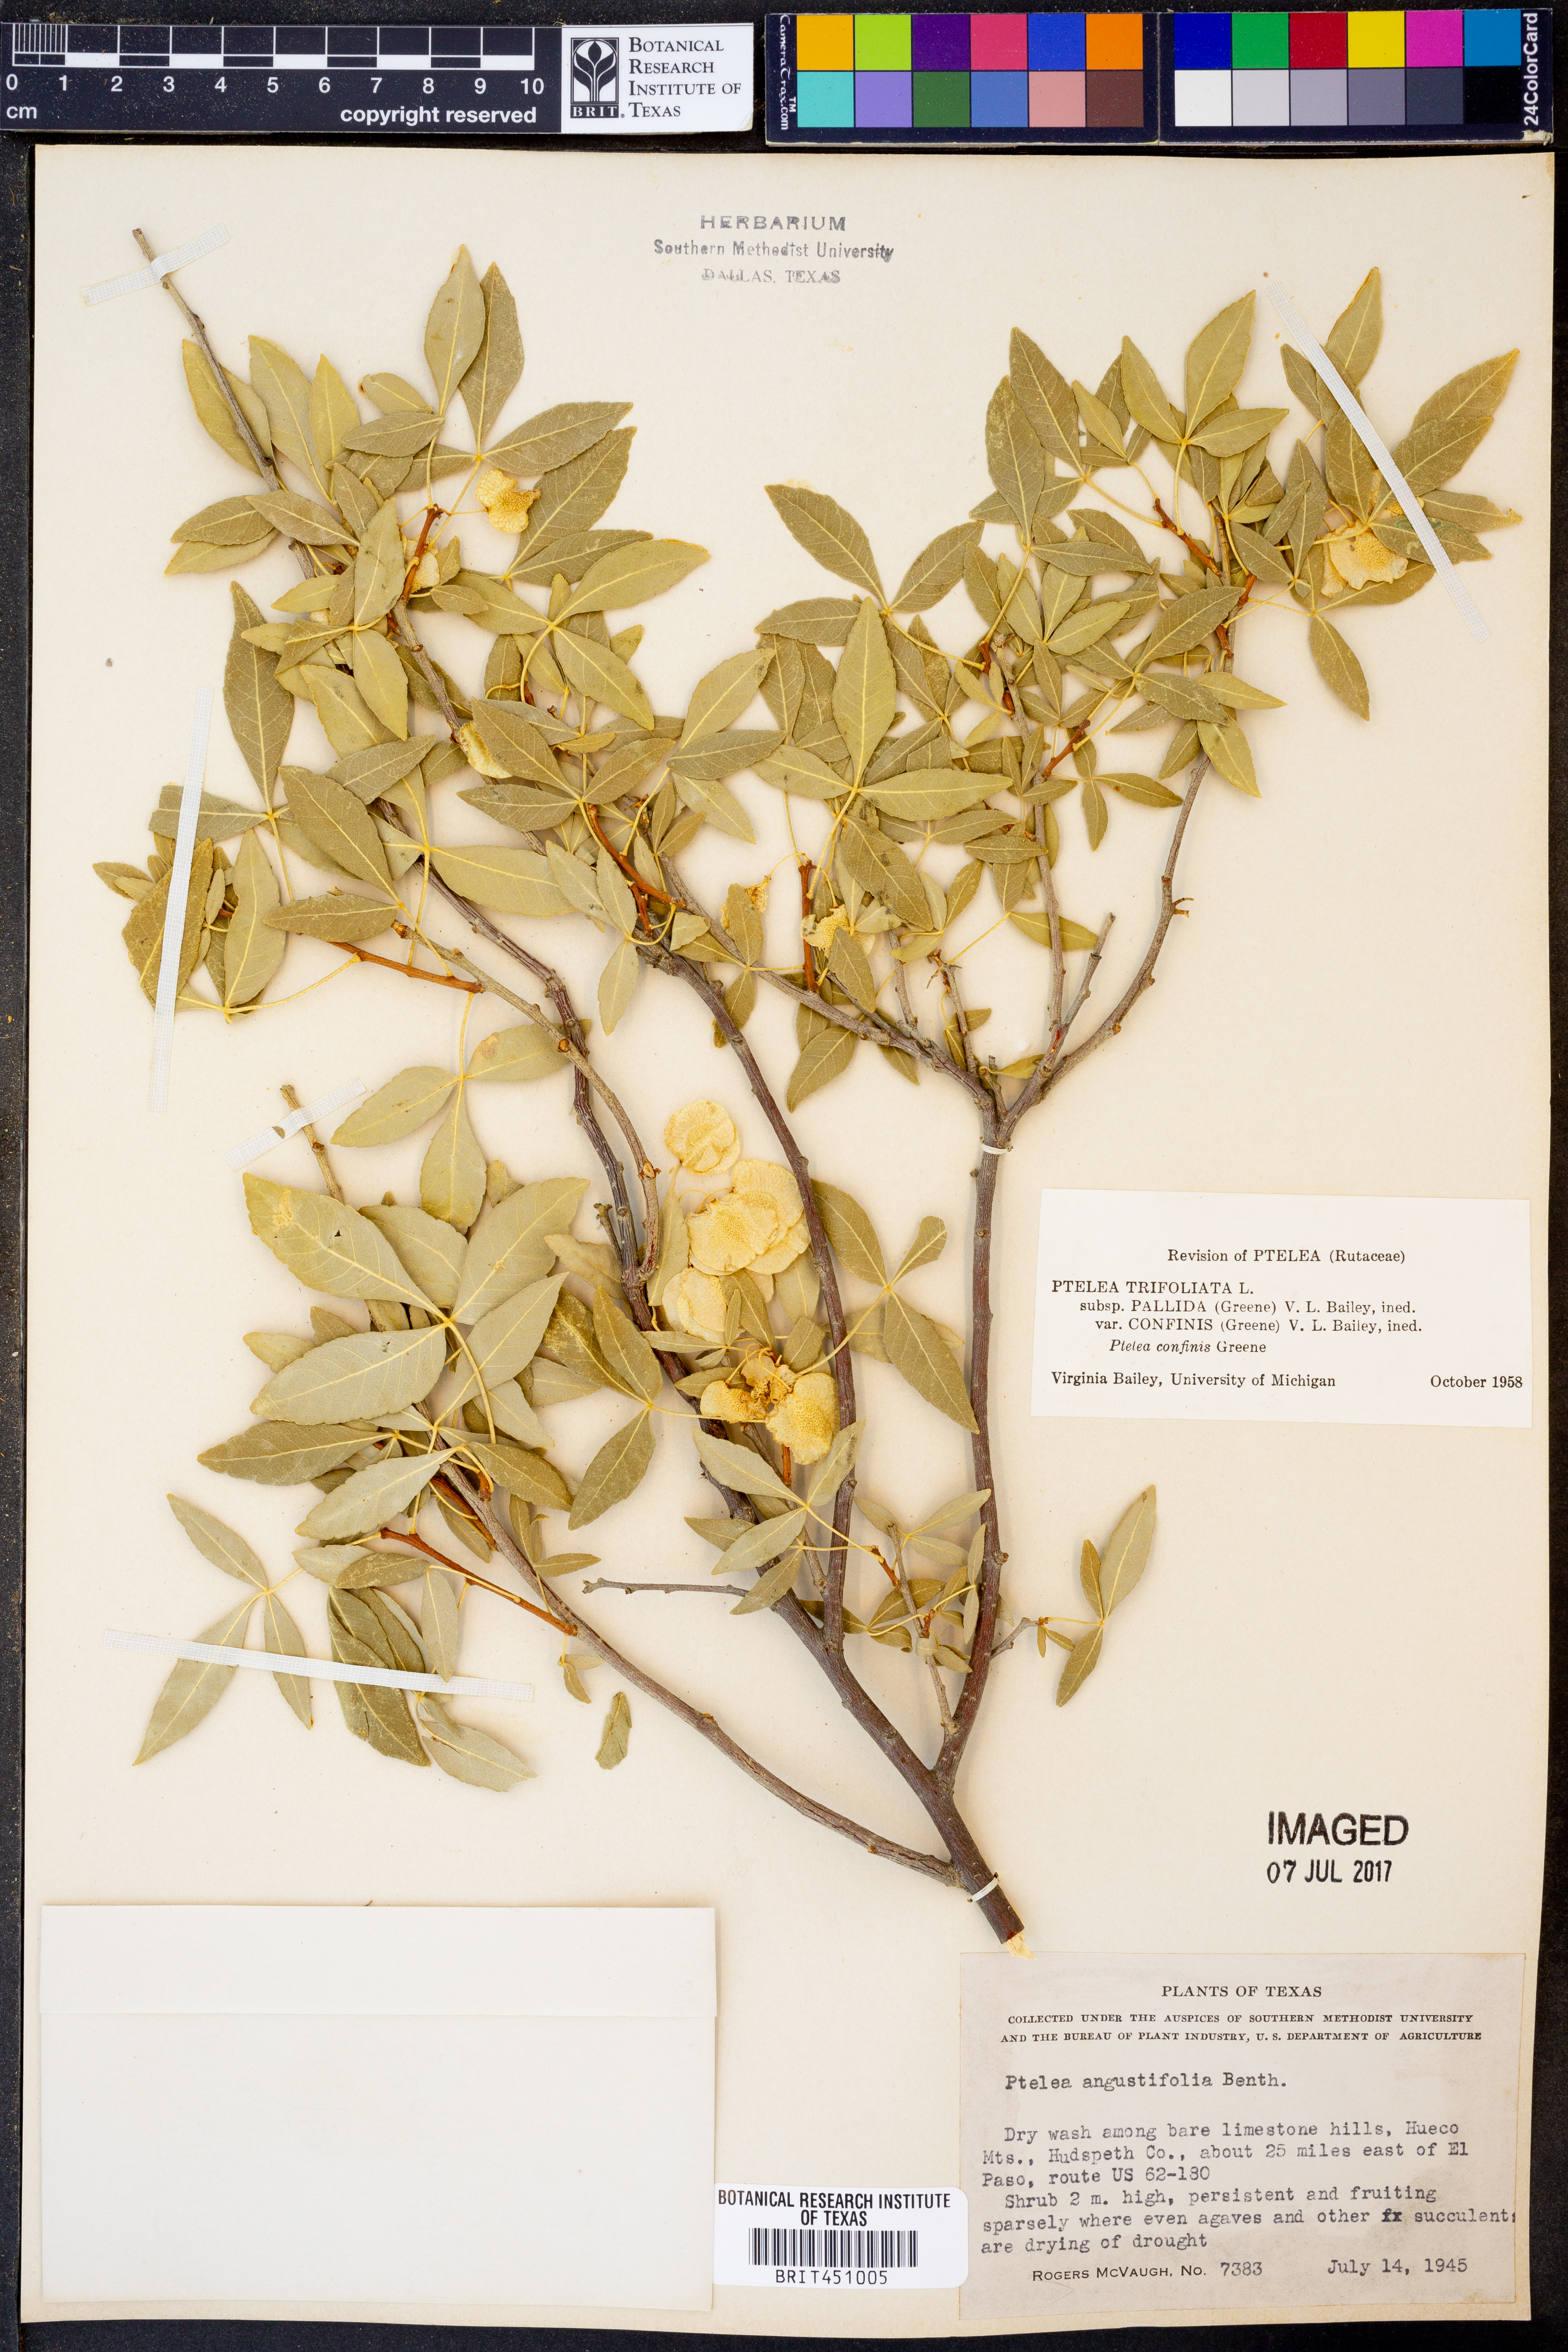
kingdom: Plantae
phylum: Tracheophyta
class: Magnoliopsida
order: Sapindales
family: Rutaceae
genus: Ptelea
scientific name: Ptelea trifoliata
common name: Common hop-tree
